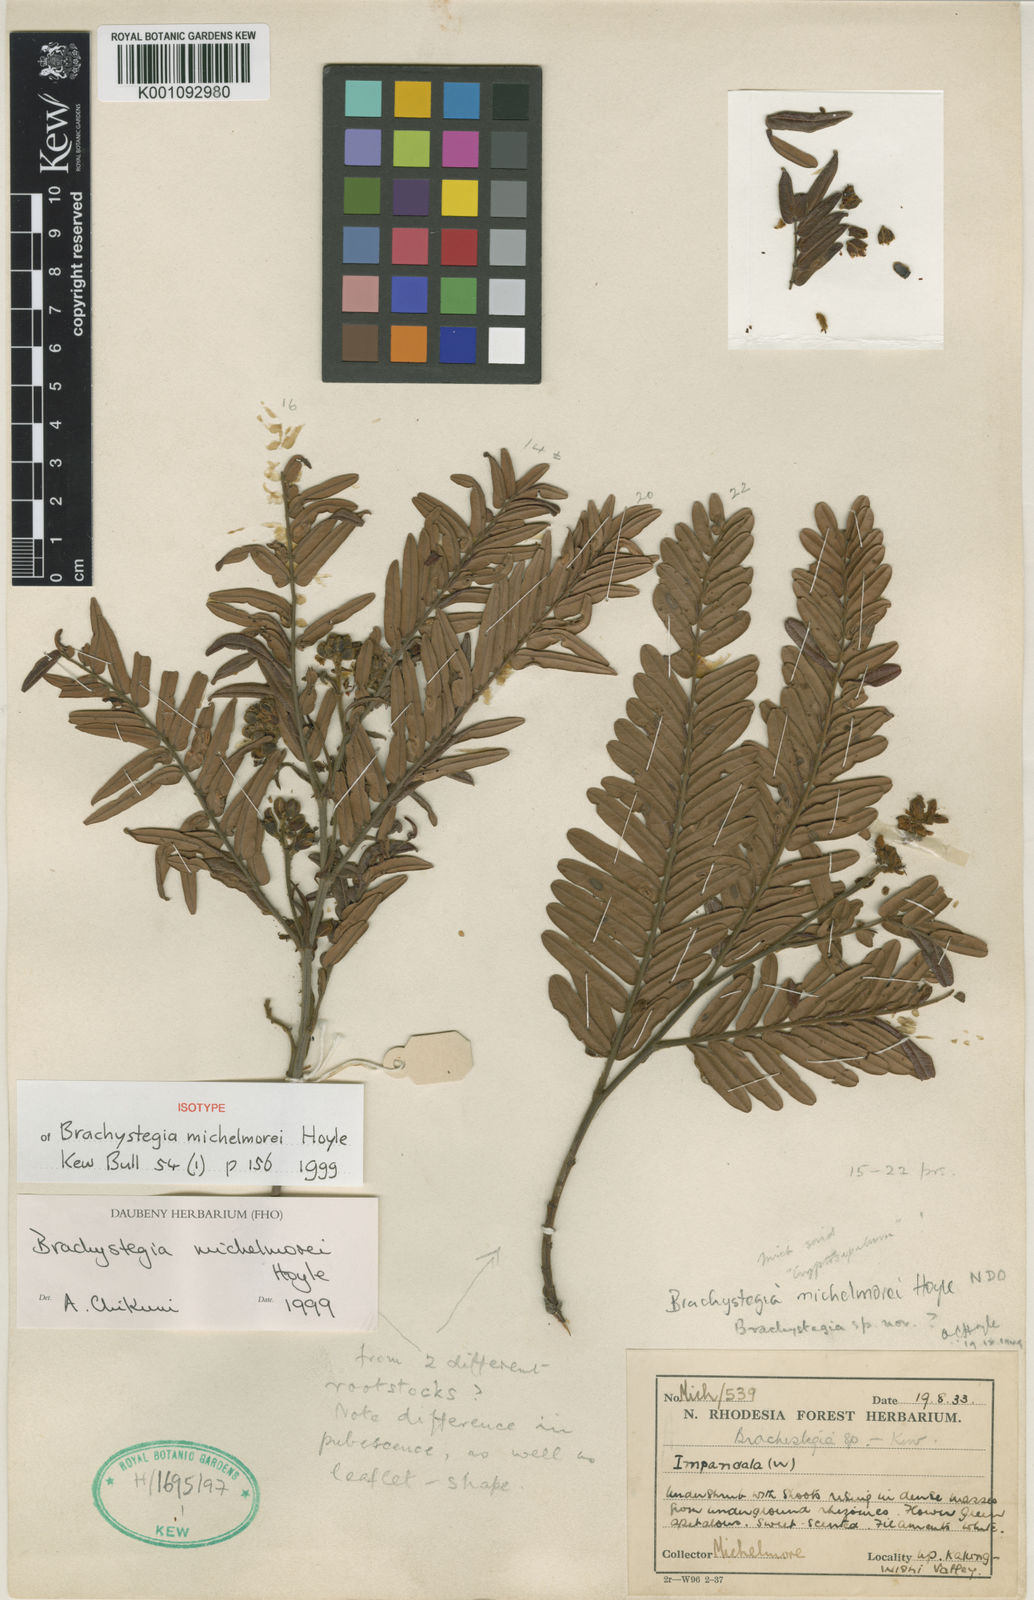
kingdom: Plantae
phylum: Tracheophyta
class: Magnoliopsida
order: Fabales
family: Fabaceae
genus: Brachystegia
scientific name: Brachystegia michelmorei
